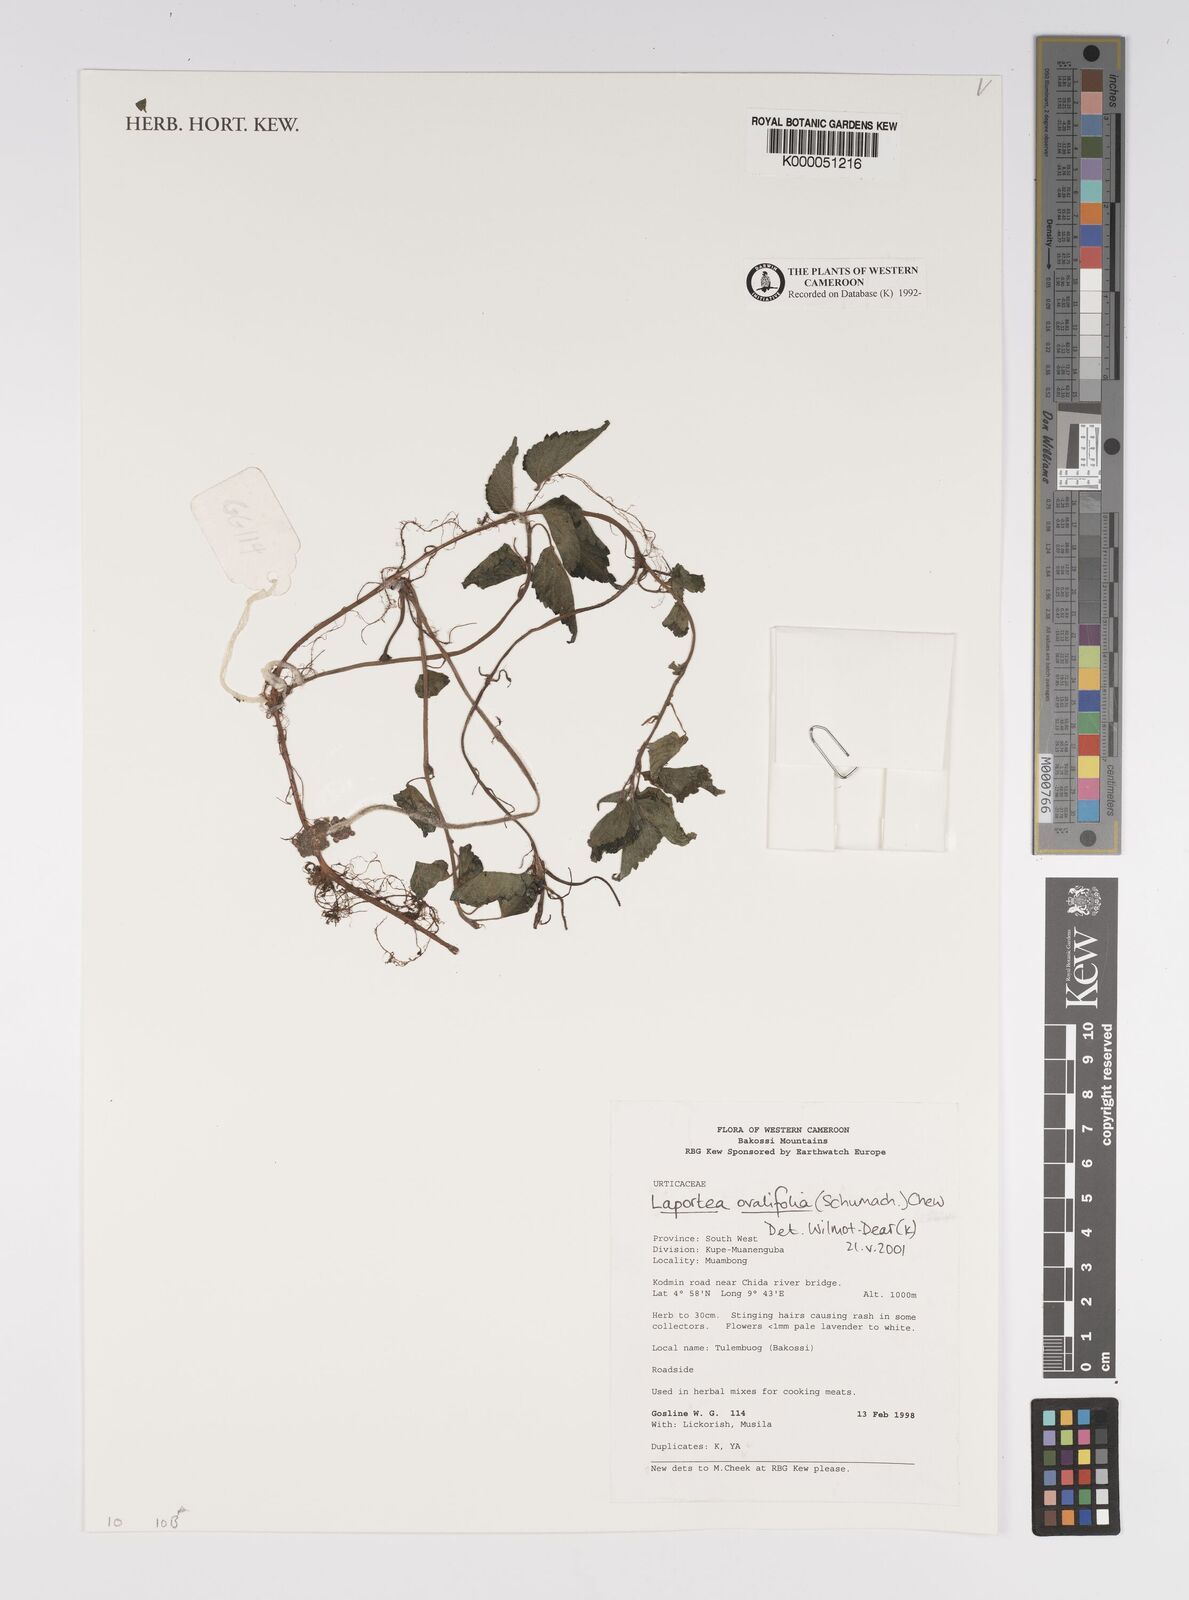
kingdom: Plantae
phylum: Tracheophyta
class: Magnoliopsida
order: Rosales
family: Urticaceae
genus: Laportea
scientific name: Laportea ovalifolia
